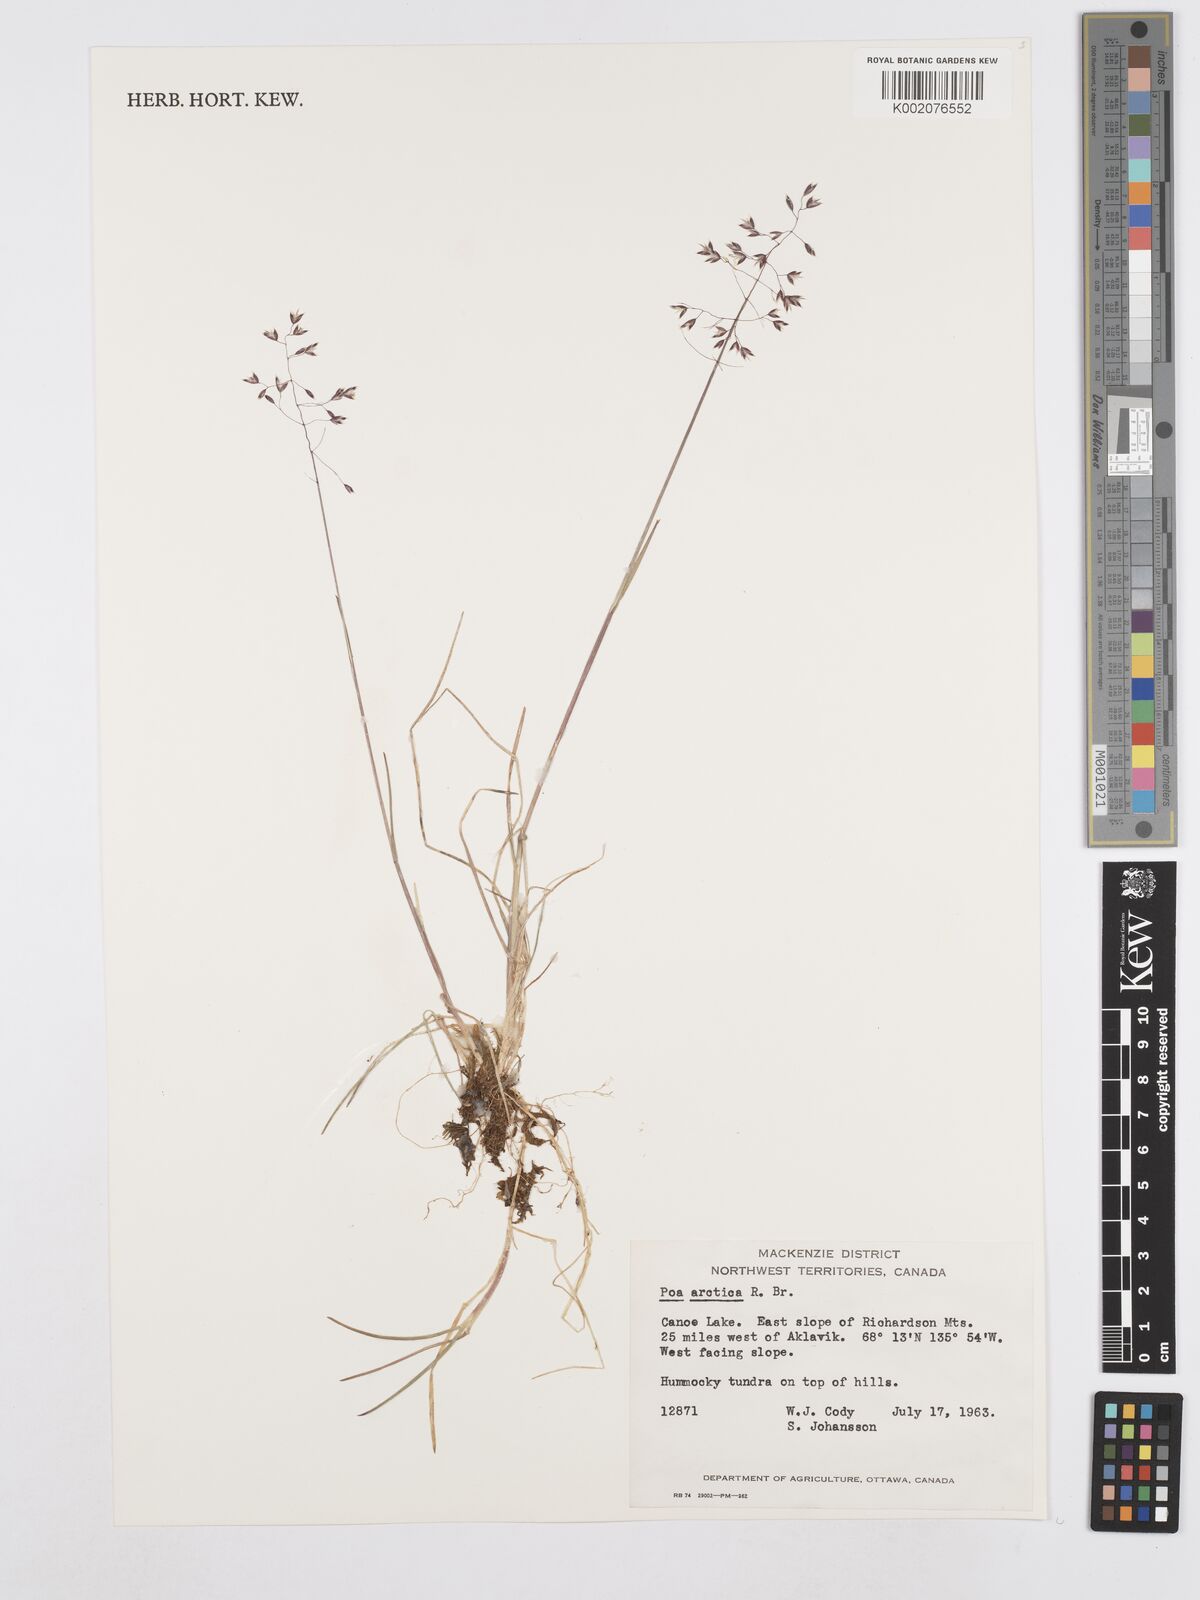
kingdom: Plantae
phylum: Tracheophyta
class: Liliopsida
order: Poales
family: Poaceae
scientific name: Poaceae
